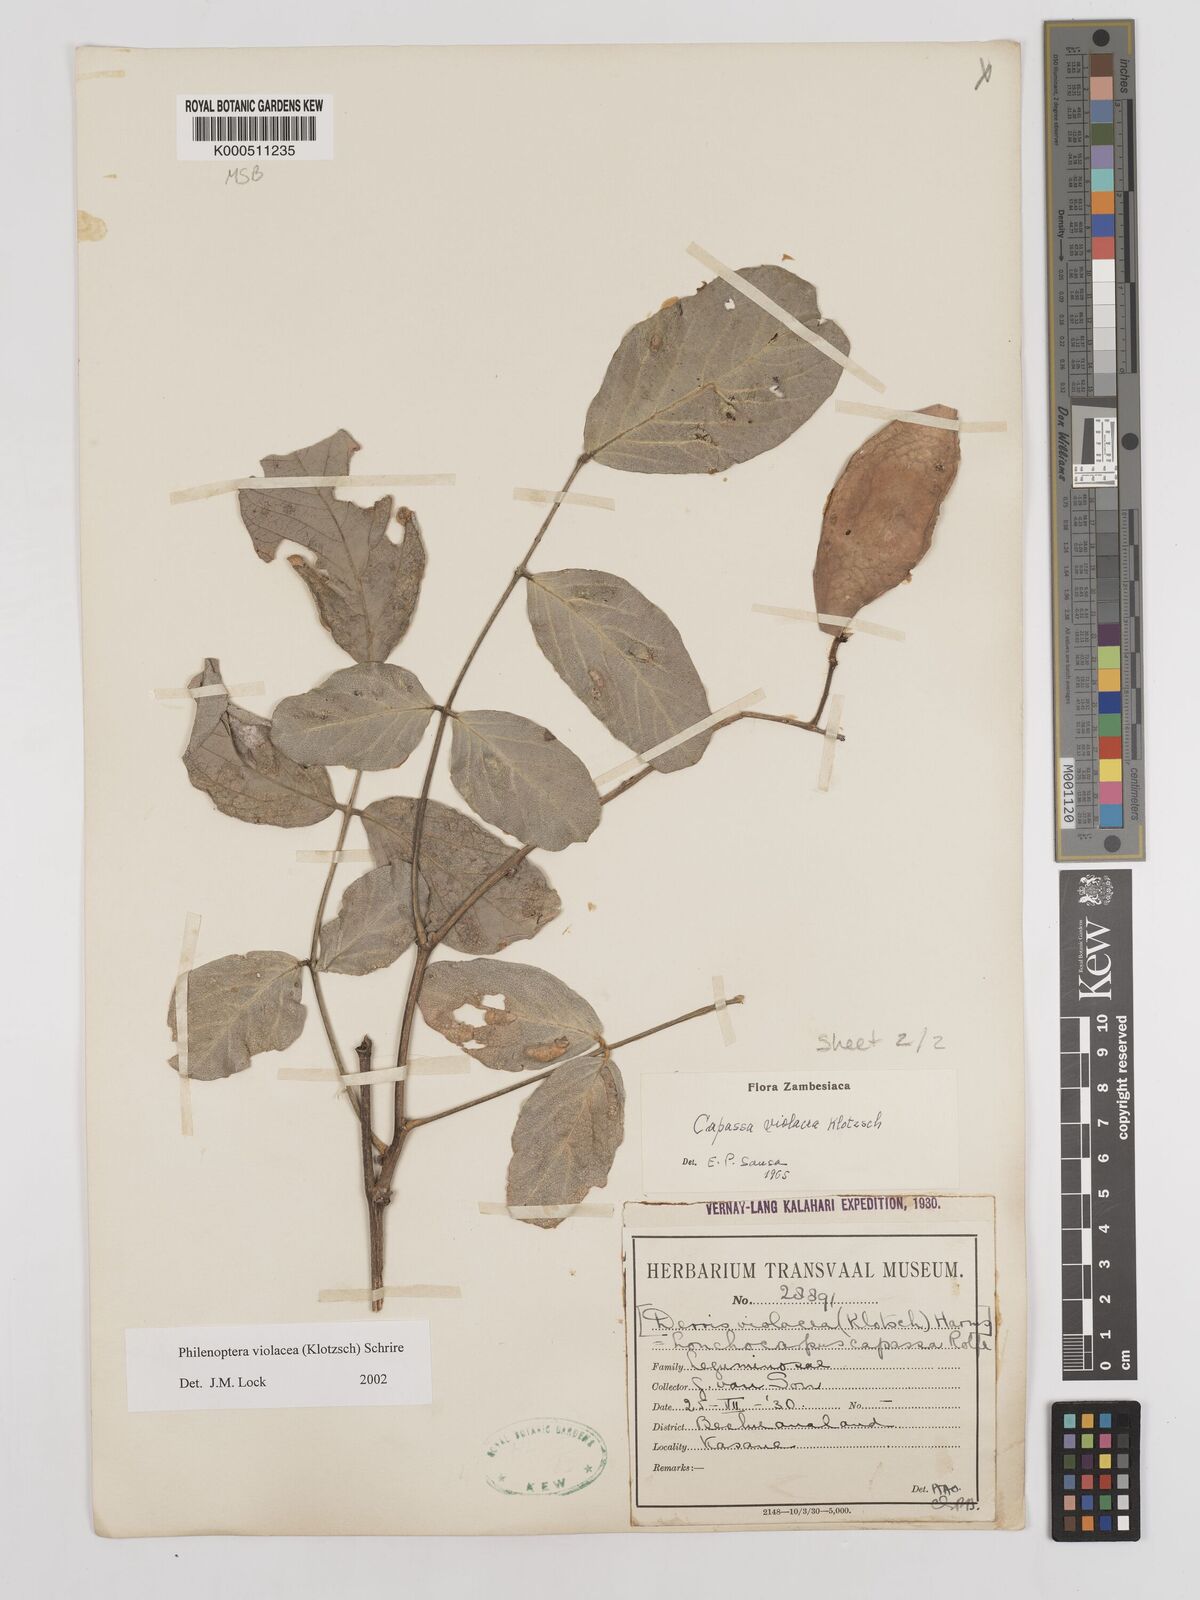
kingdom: Plantae
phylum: Tracheophyta
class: Magnoliopsida
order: Fabales
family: Fabaceae
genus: Philenoptera
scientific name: Philenoptera violacea
